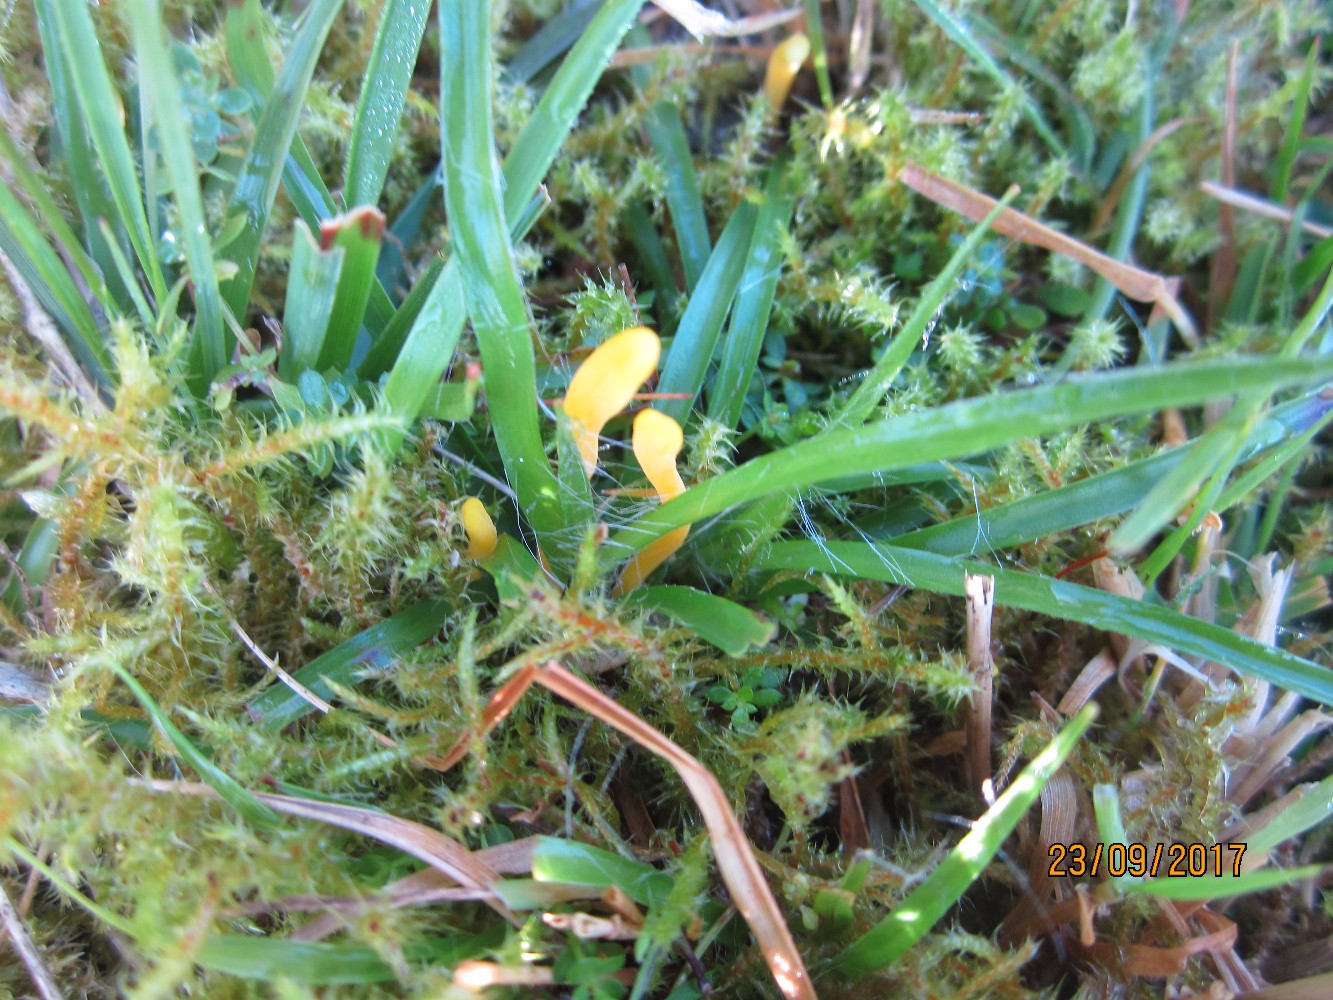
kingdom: Fungi
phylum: Basidiomycota
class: Agaricomycetes
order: Agaricales
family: Clavariaceae
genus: Clavulinopsis
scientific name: Clavulinopsis helvola
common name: orangegul køllesvamp
